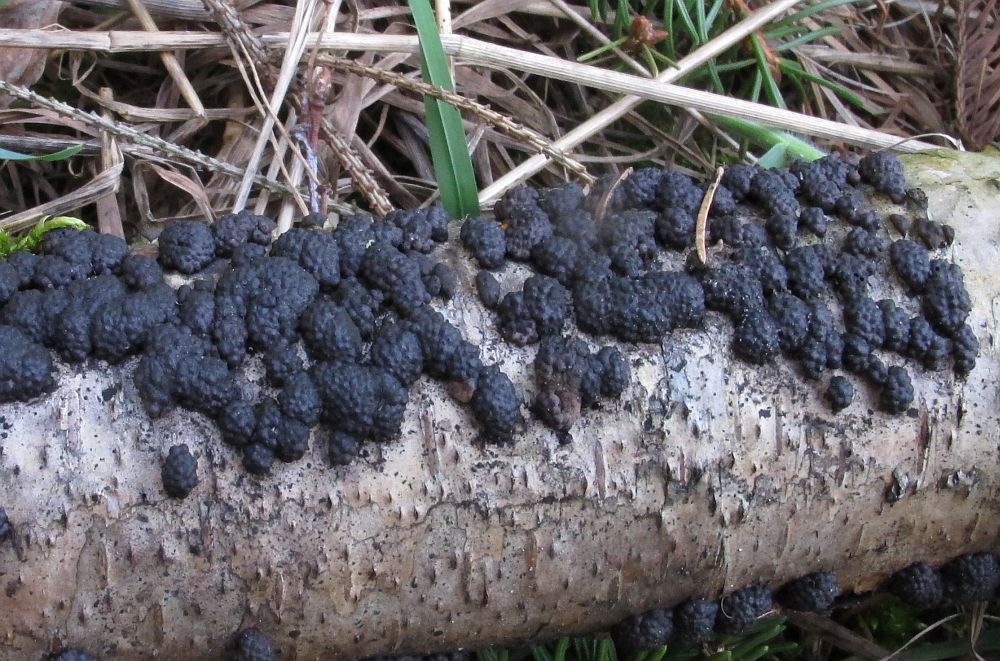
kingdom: Fungi
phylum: Ascomycota
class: Sordariomycetes
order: Xylariales
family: Hypoxylaceae
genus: Jackrogersella
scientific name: Jackrogersella multiformis
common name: foranderlig kulbær
